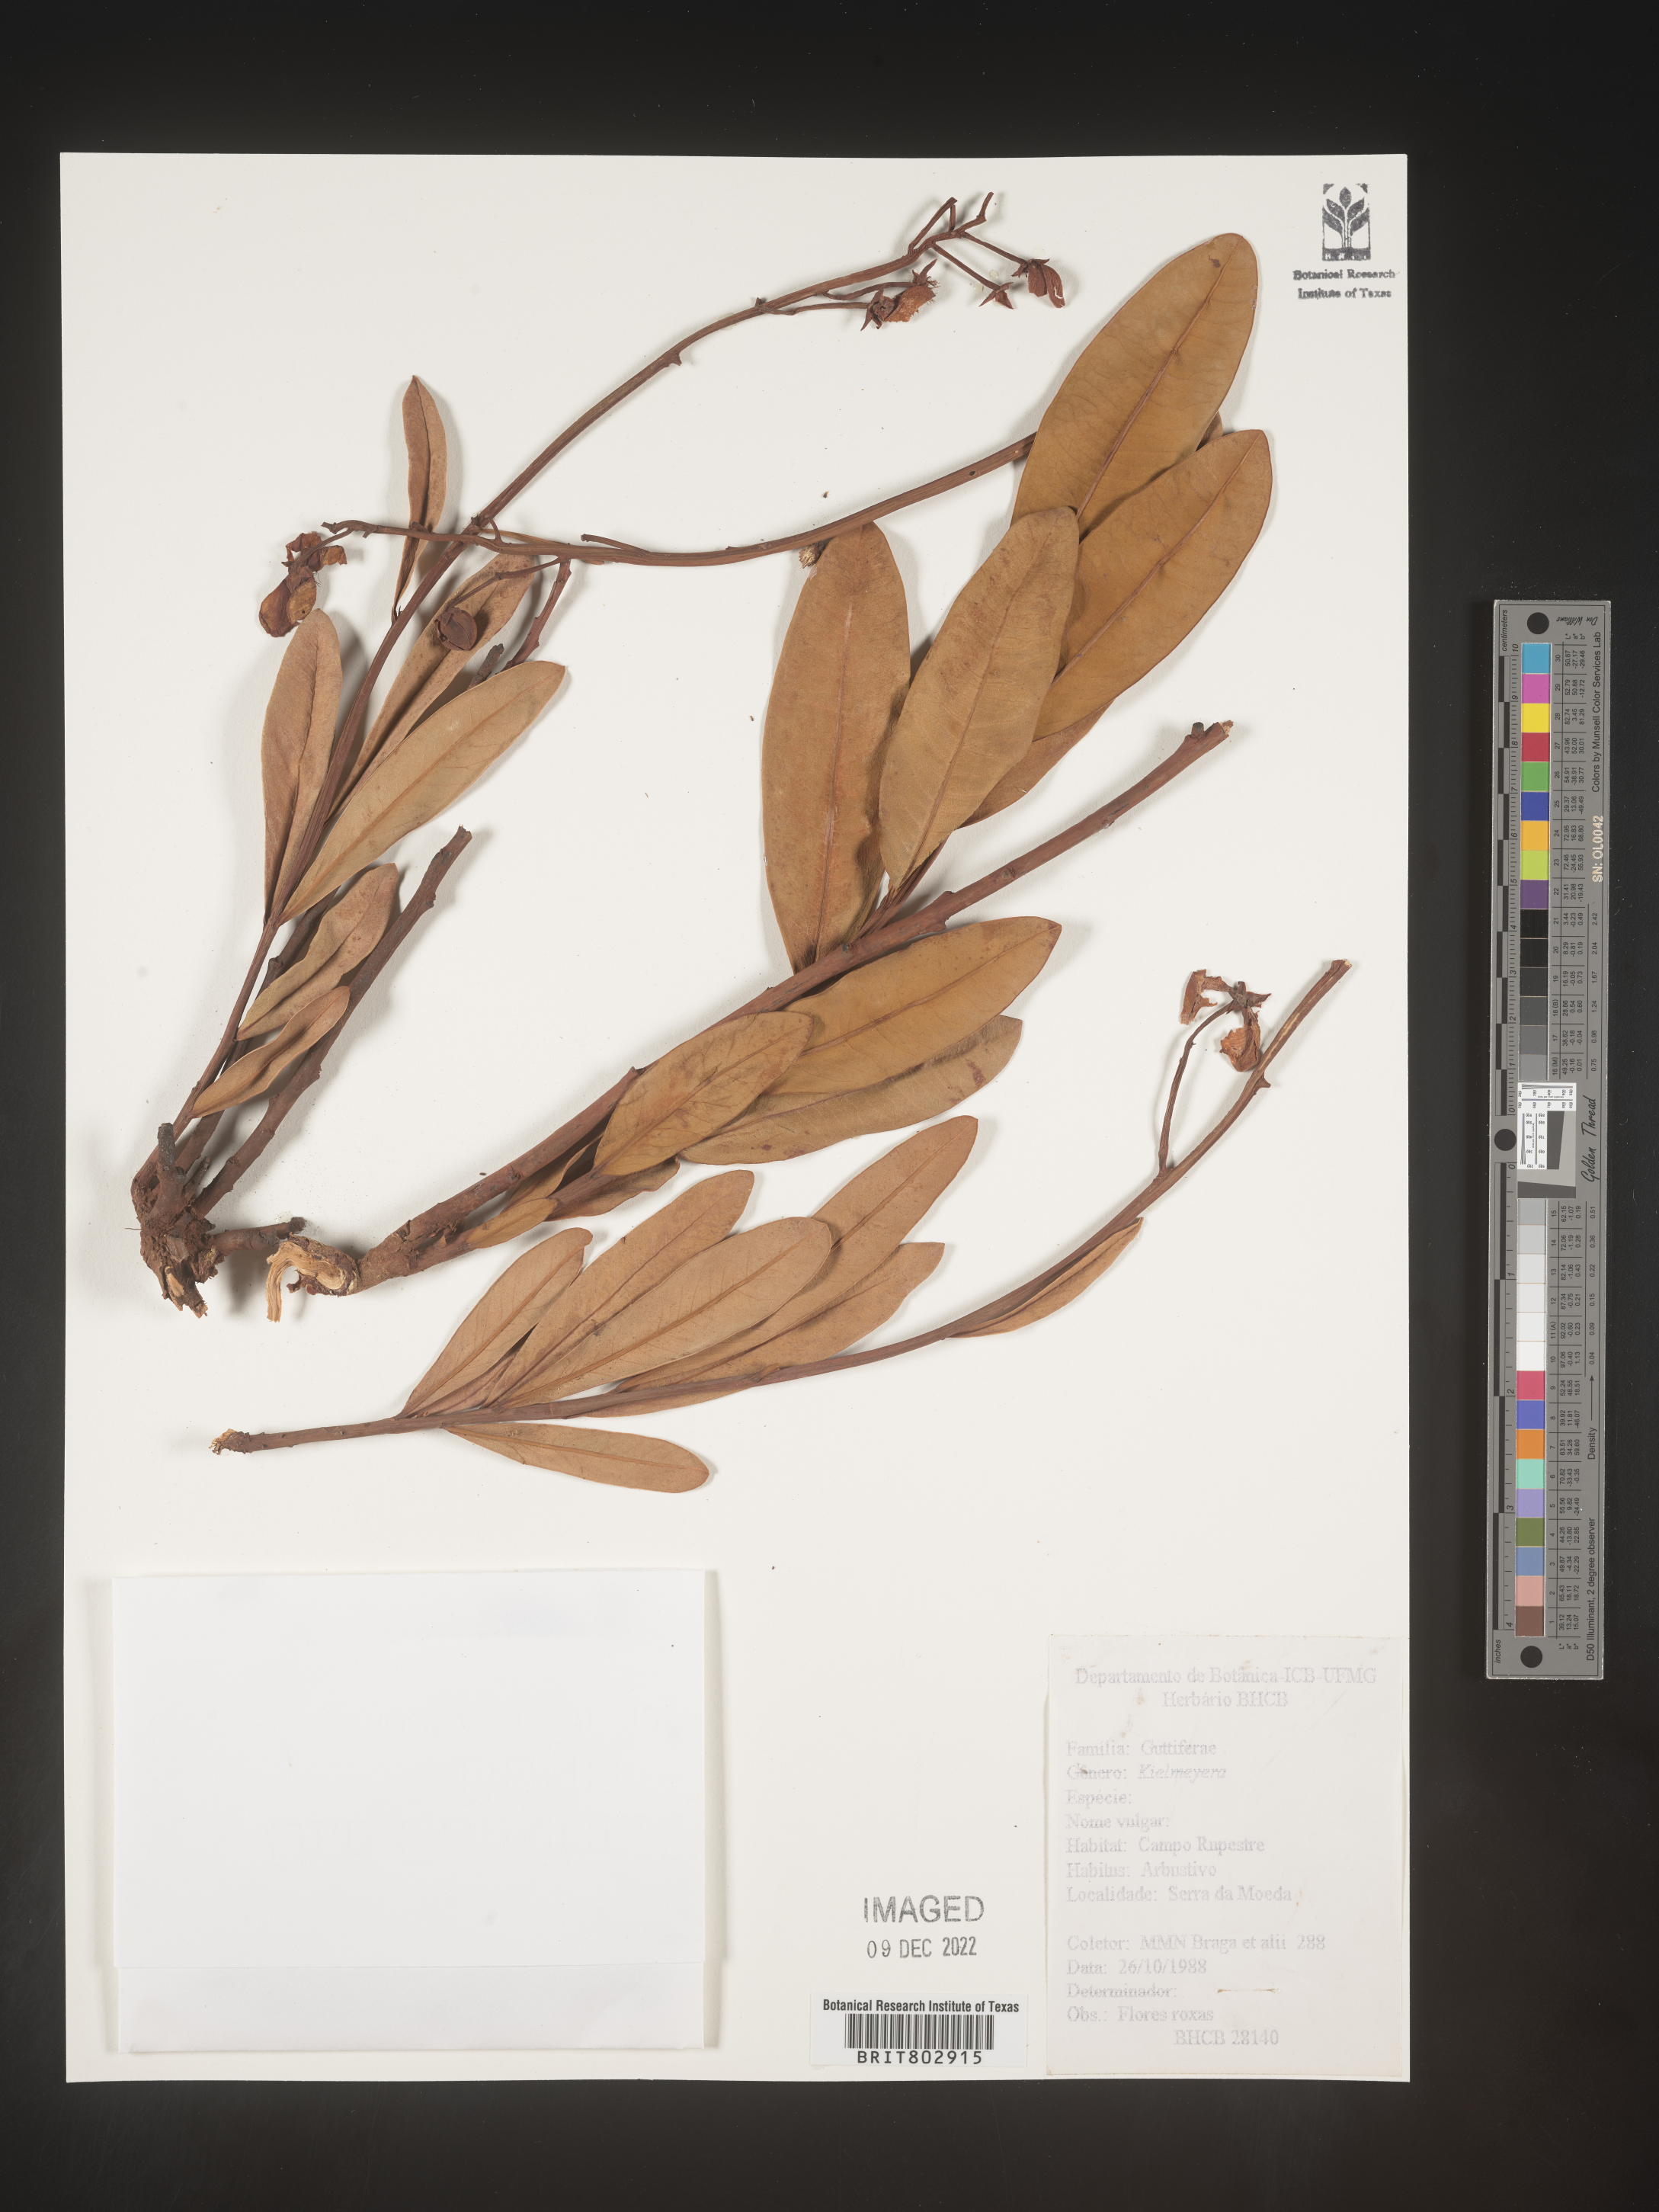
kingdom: Plantae
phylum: Tracheophyta
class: Magnoliopsida
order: Malpighiales
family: Calophyllaceae
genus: Kielmeyera
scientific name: Kielmeyera
